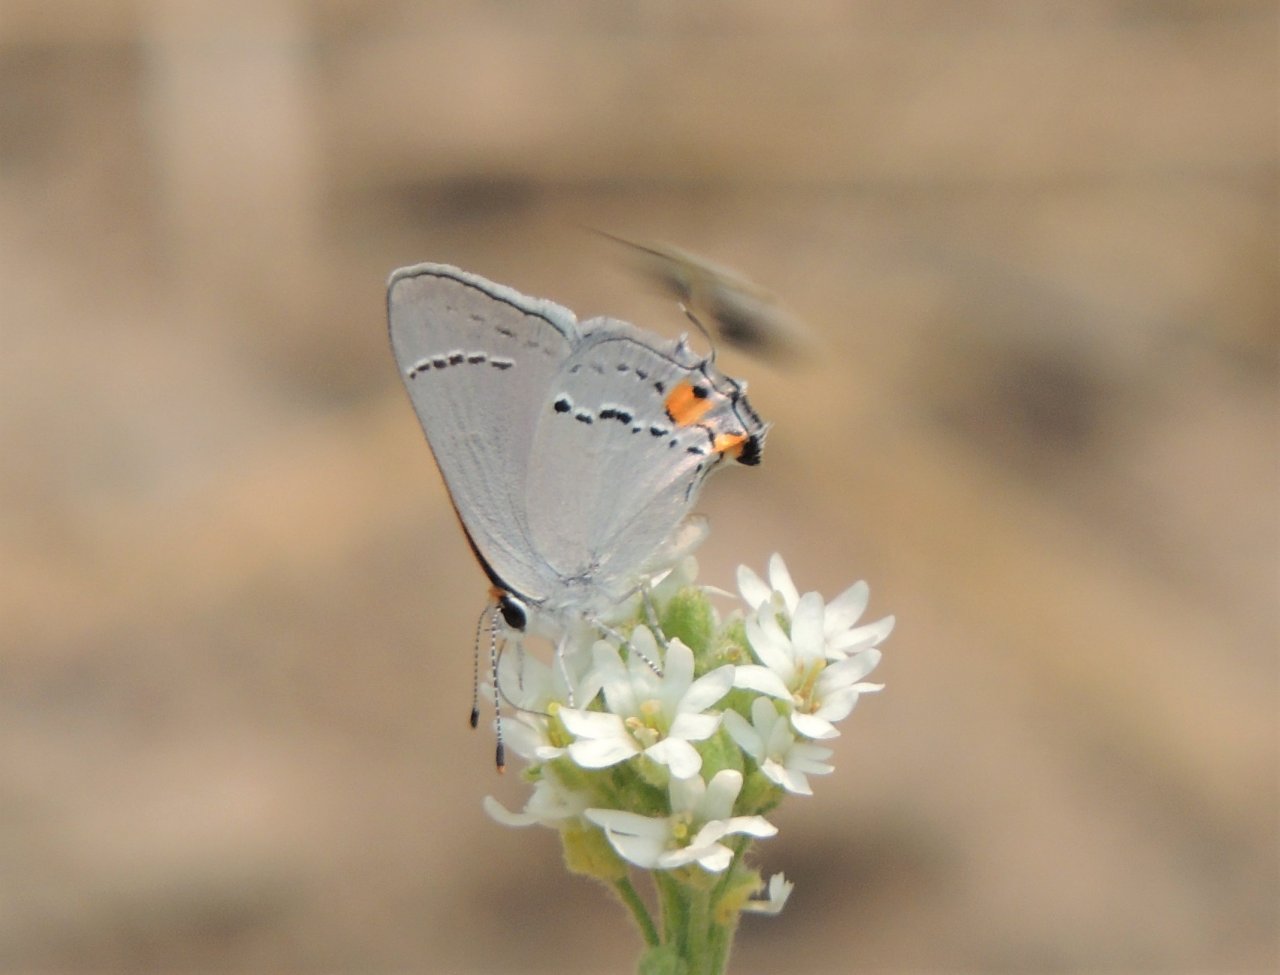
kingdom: Animalia
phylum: Arthropoda
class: Insecta
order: Lepidoptera
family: Lycaenidae
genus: Strymon
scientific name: Strymon melinus
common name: Gray Hairstreak
